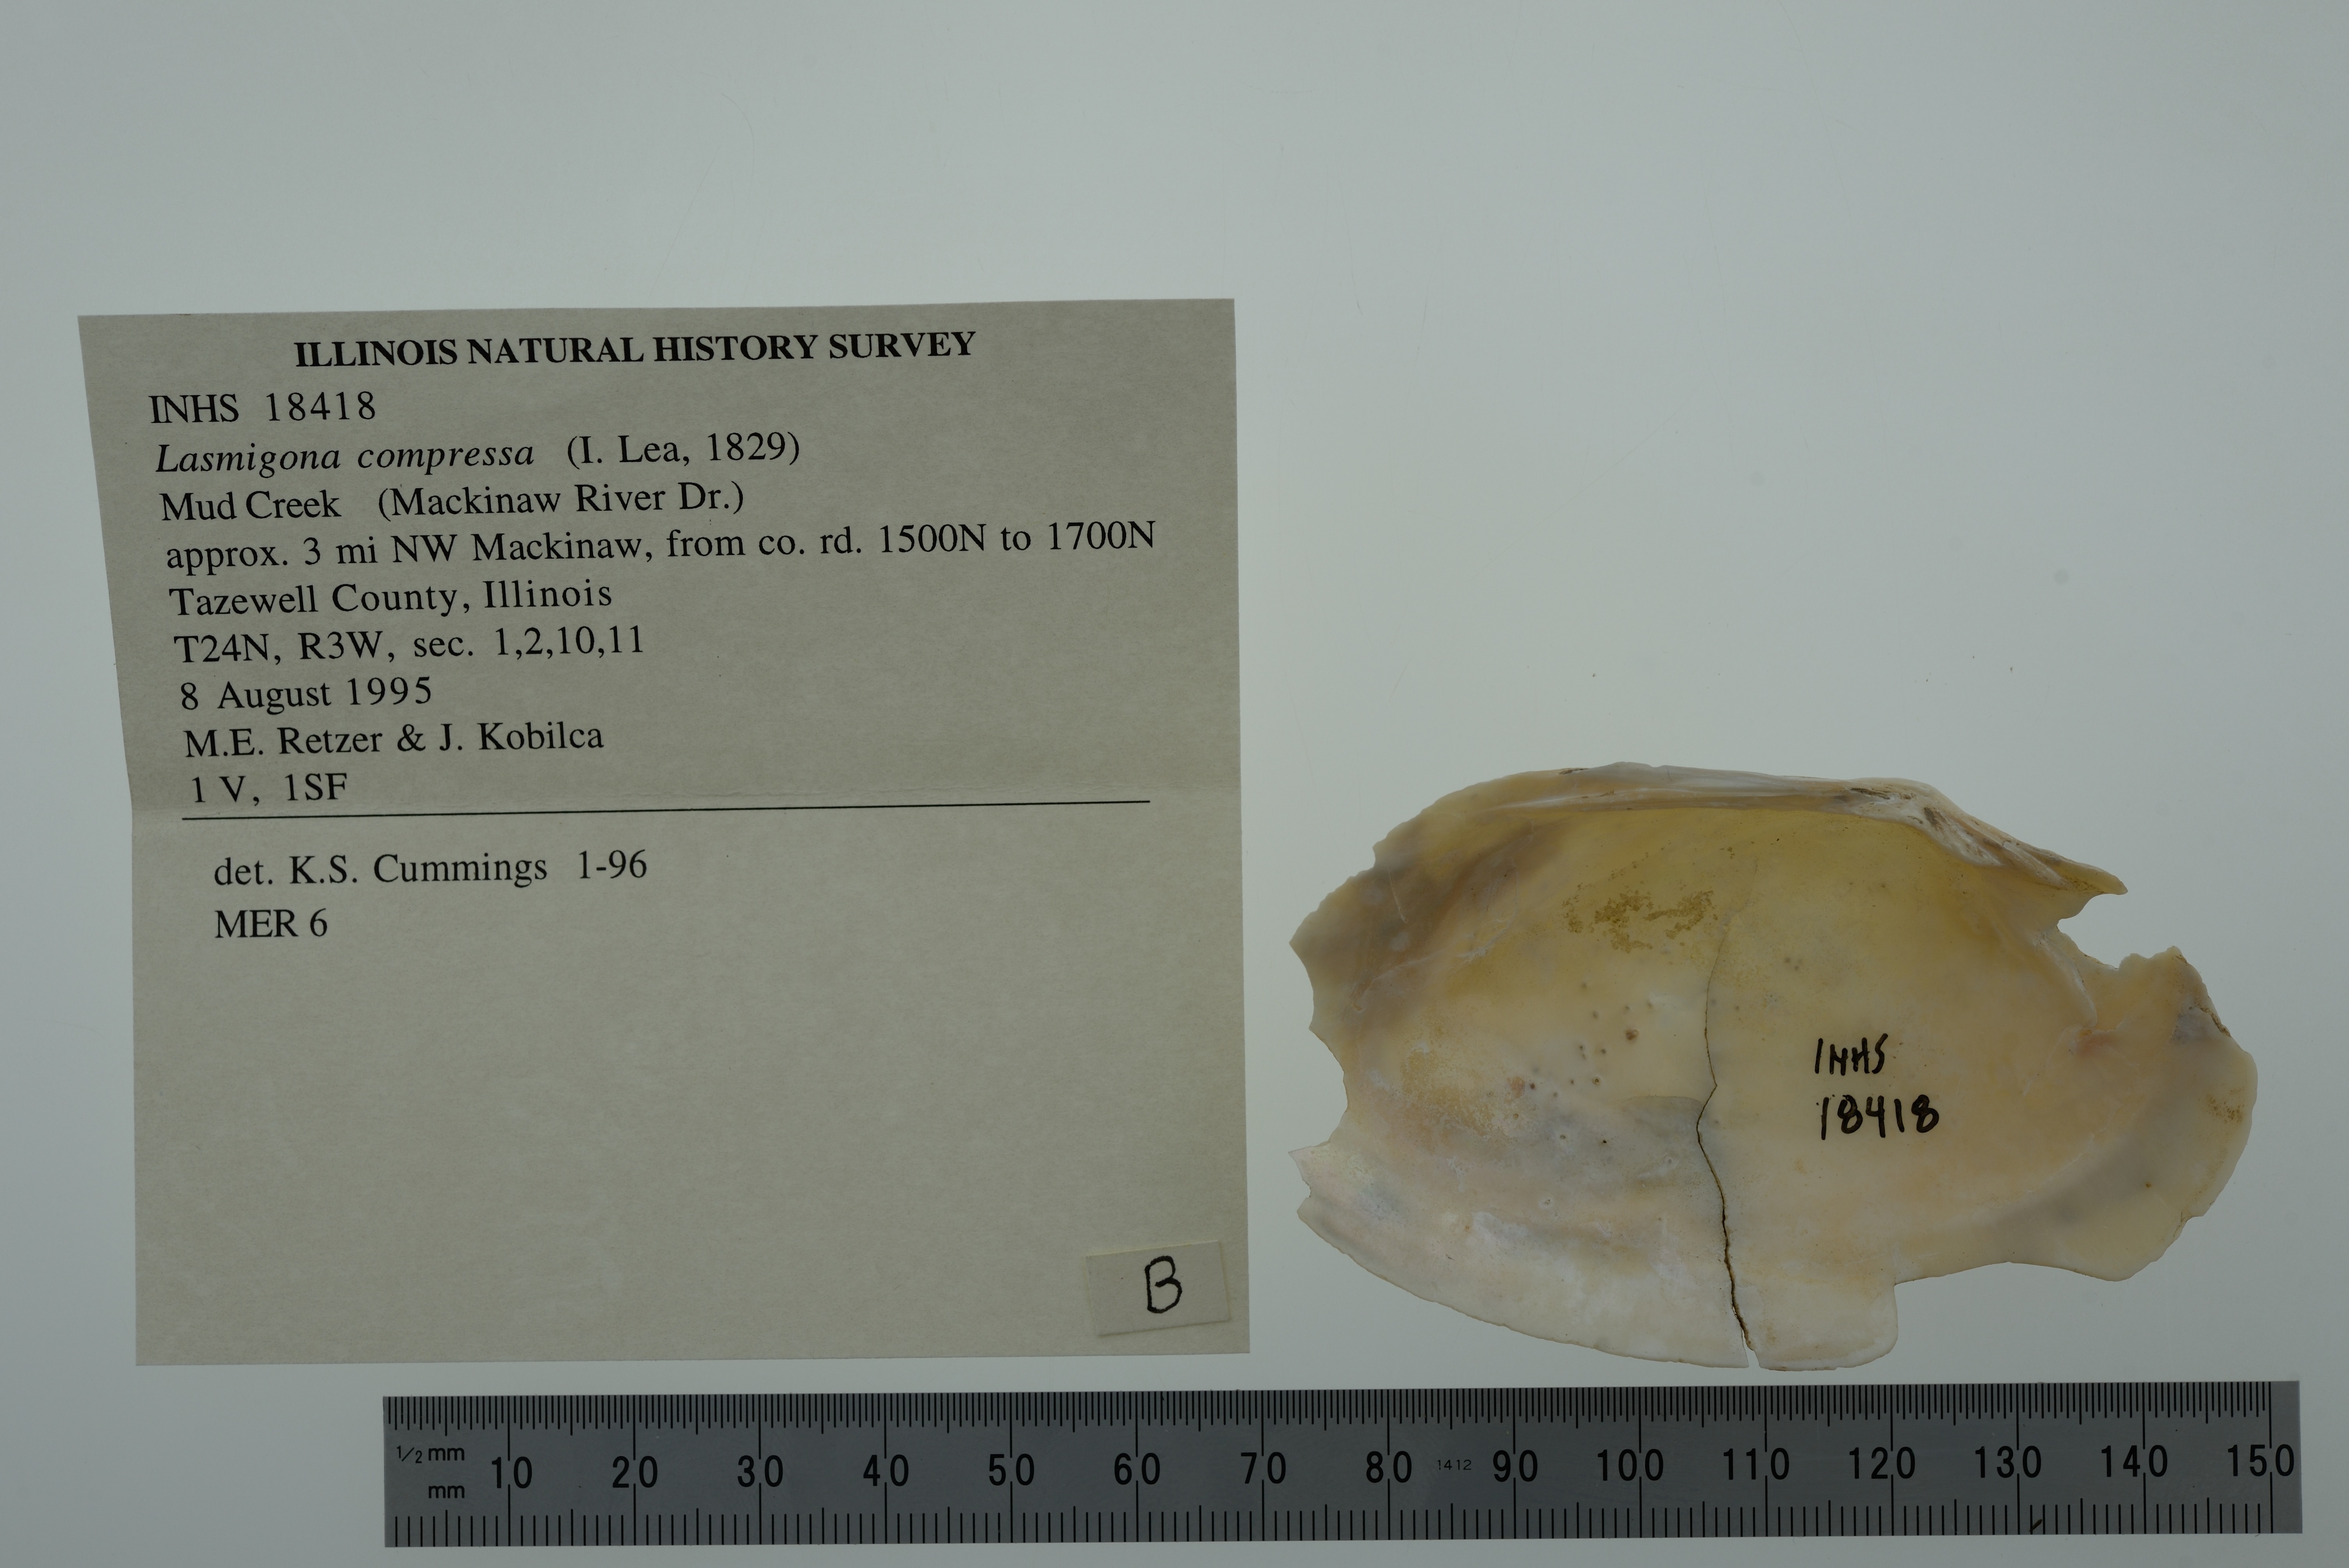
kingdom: Animalia
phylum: Mollusca
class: Bivalvia
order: Unionida
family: Unionidae
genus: Lasmigona
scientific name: Lasmigona compressa
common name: Creek heelsplitter
